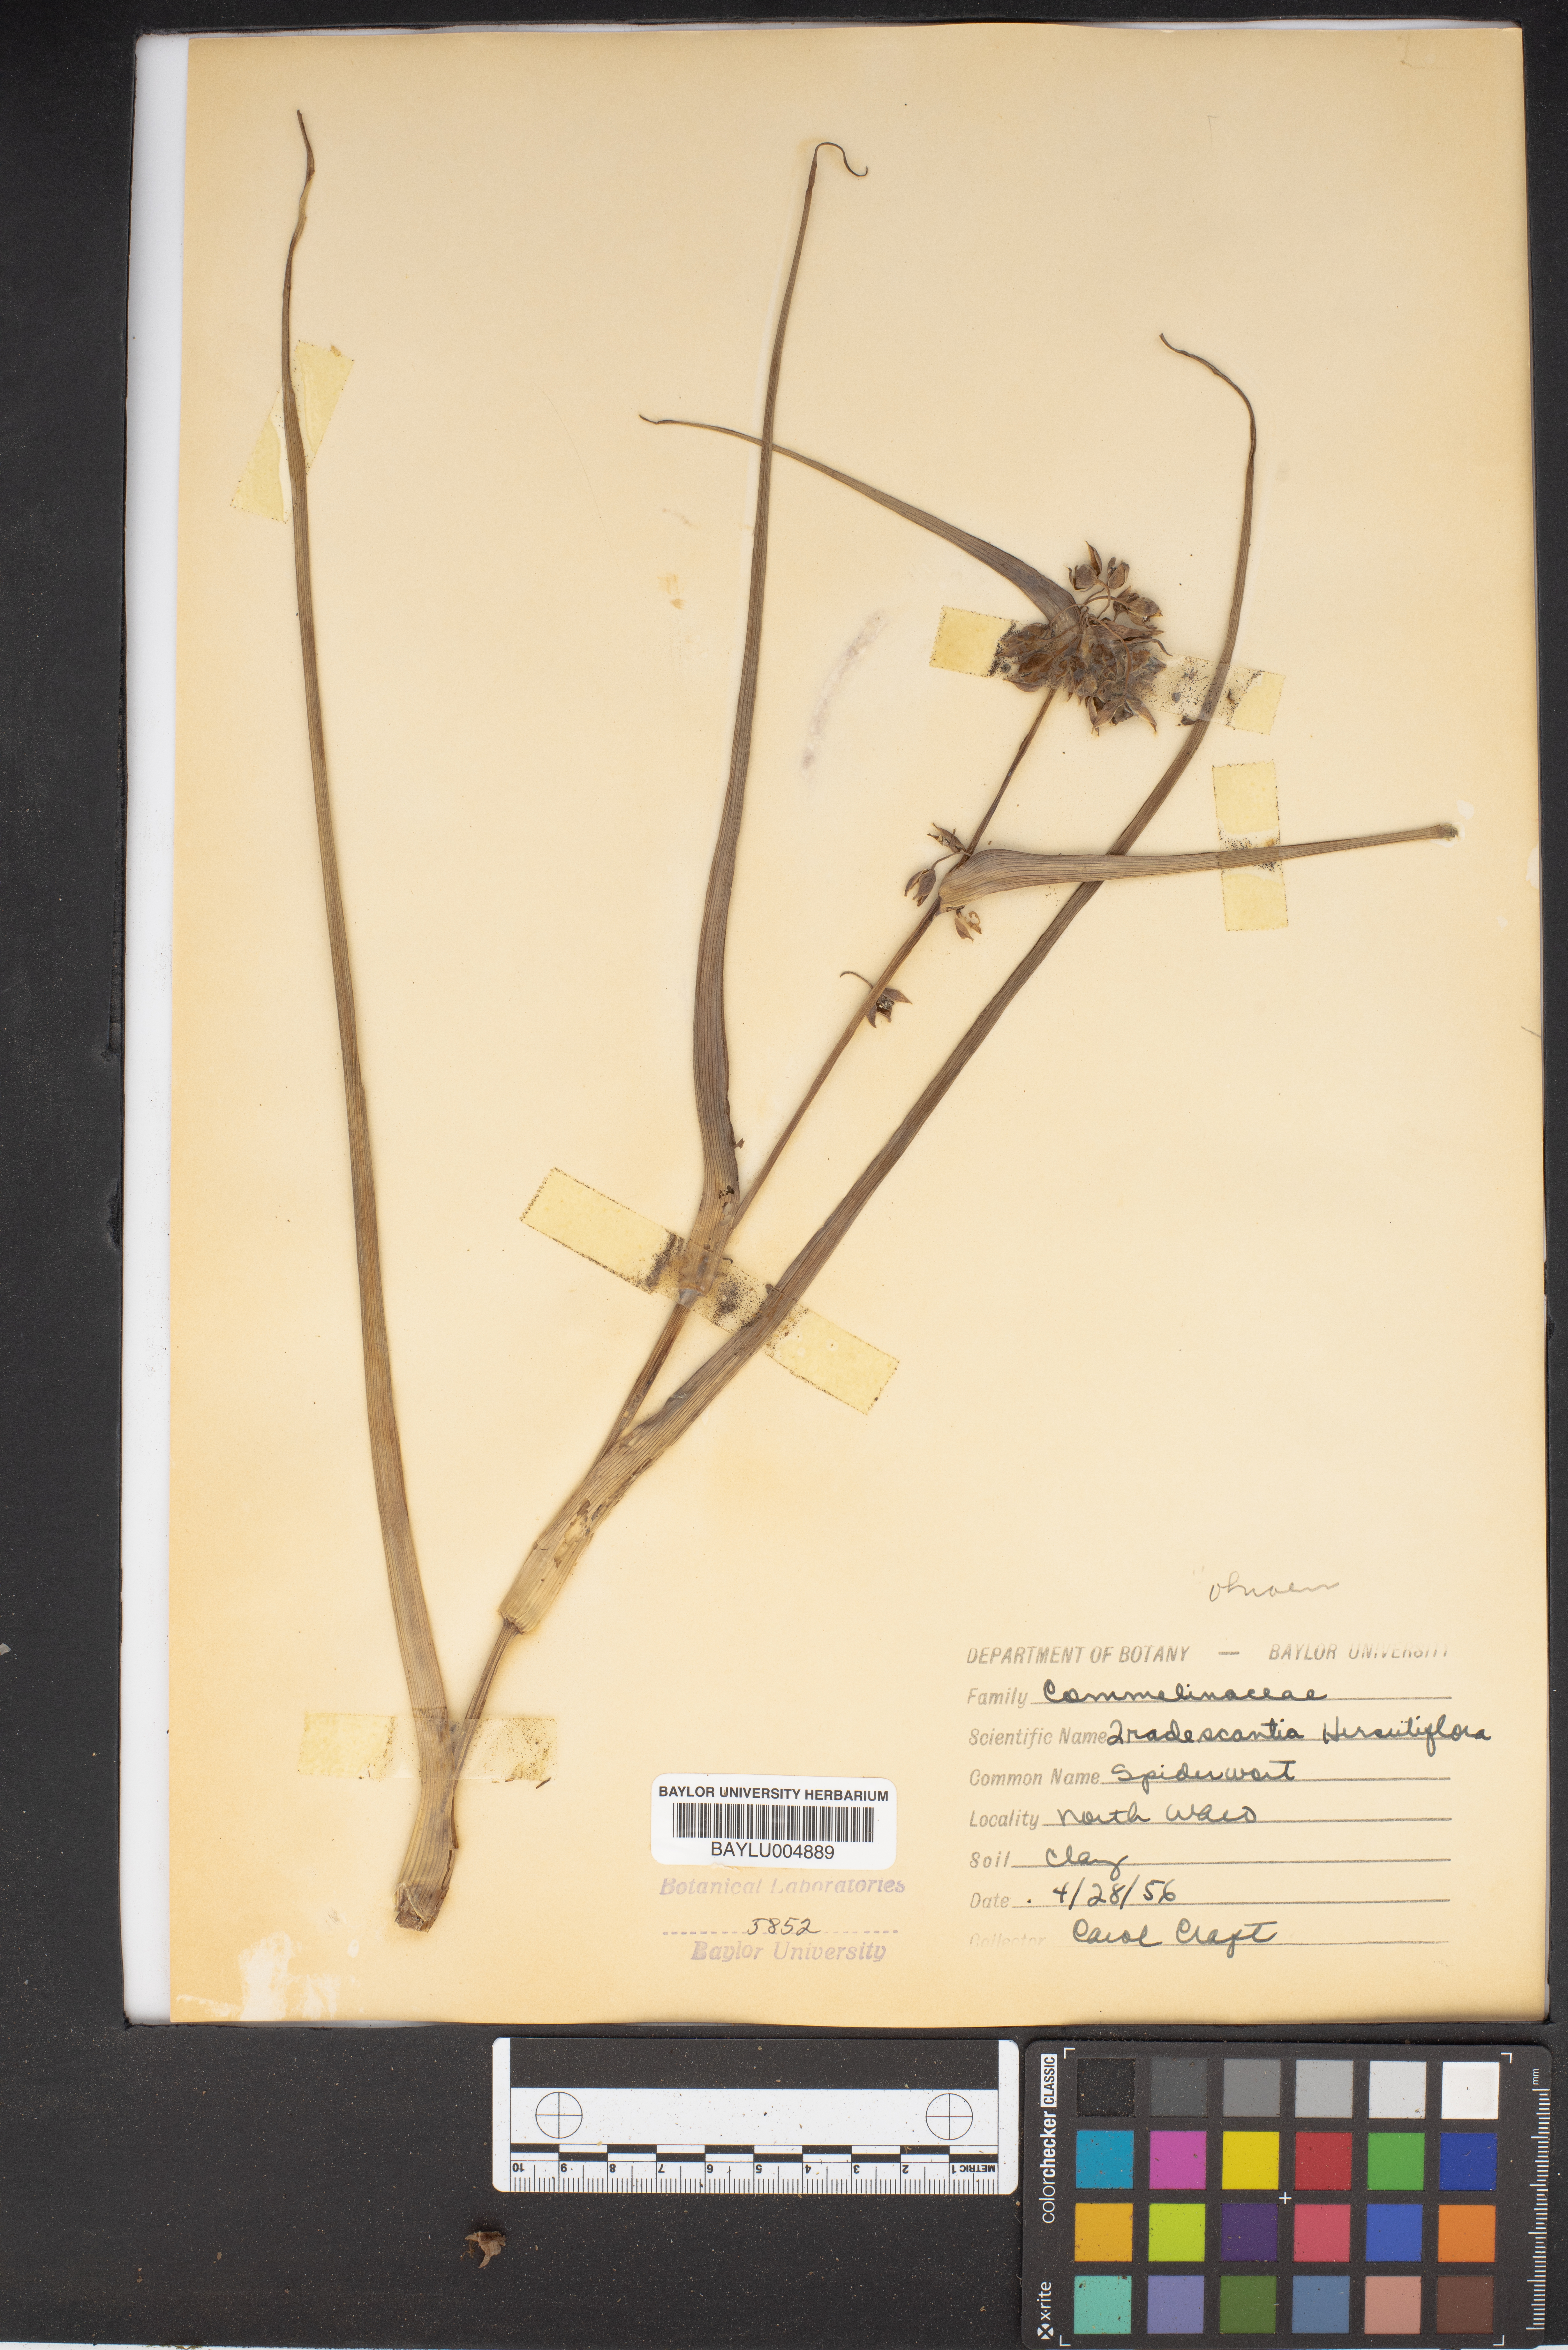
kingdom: Plantae
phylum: Tracheophyta
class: Liliopsida
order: Commelinales
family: Commelinaceae
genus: Tradescantia
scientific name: Tradescantia hirsutiflora
